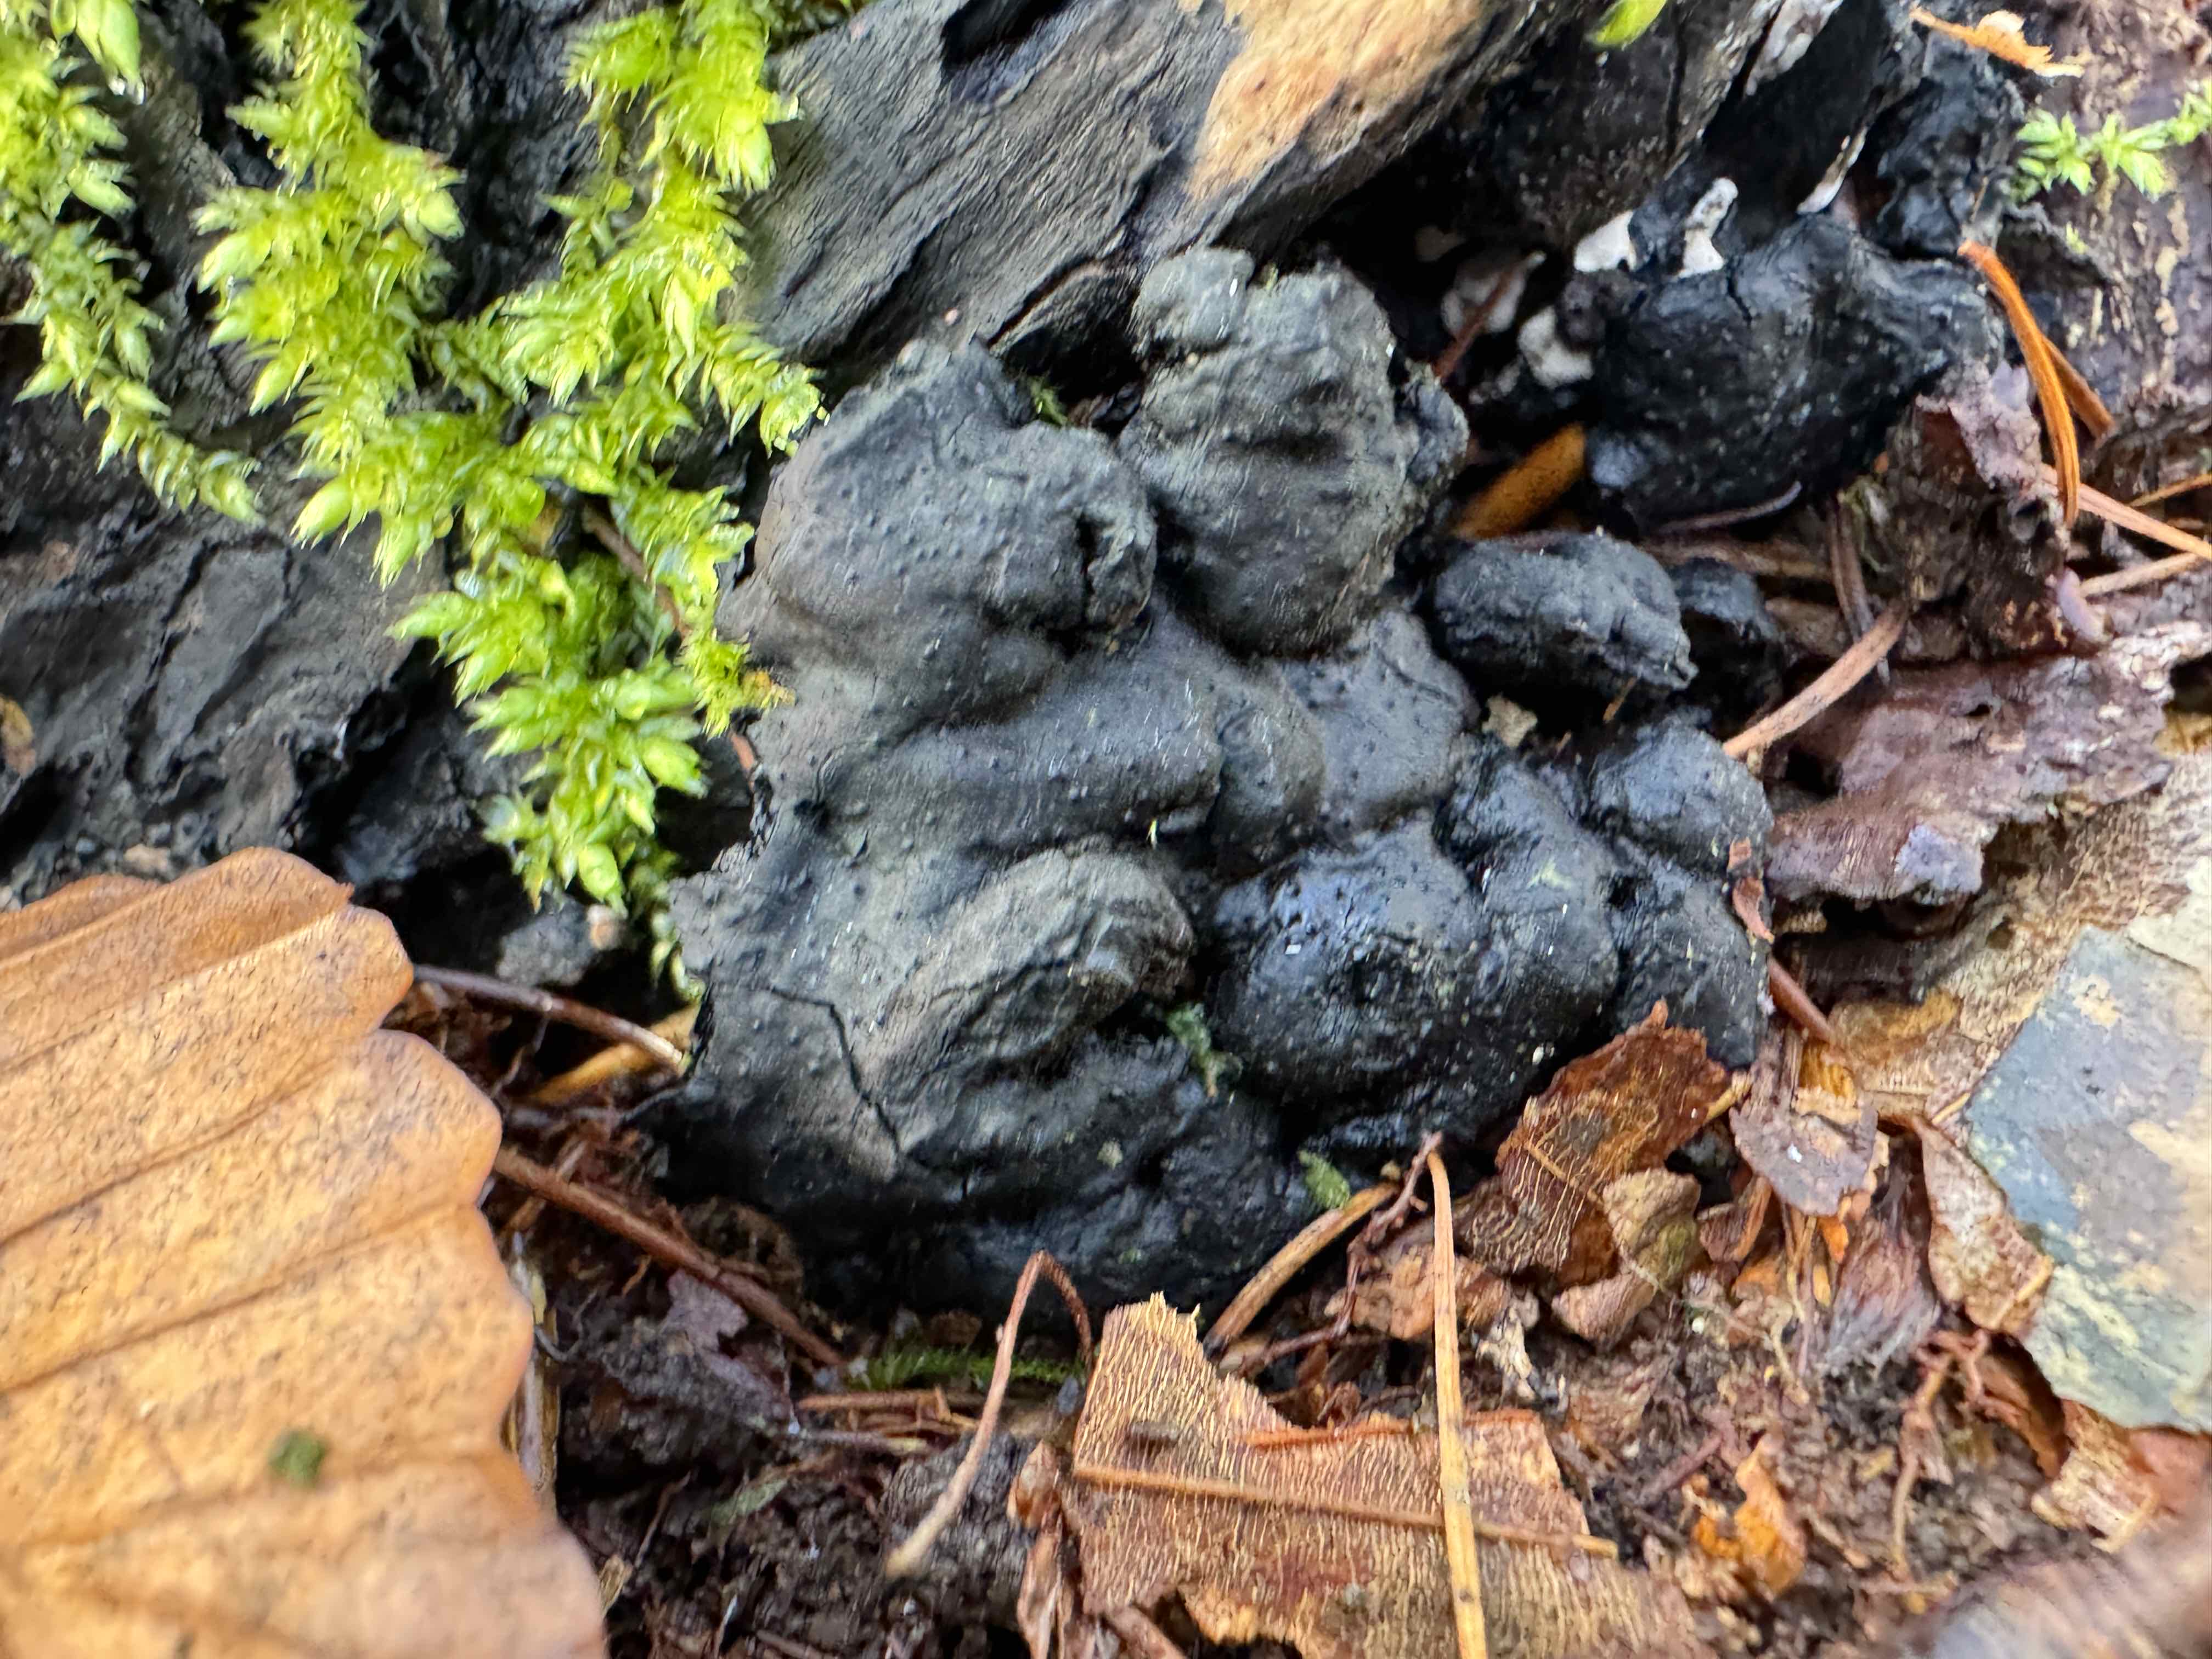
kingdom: Fungi
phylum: Ascomycota
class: Sordariomycetes
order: Xylariales
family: Xylariaceae
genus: Kretzschmaria
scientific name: Kretzschmaria deusta
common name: stor kulsvamp
